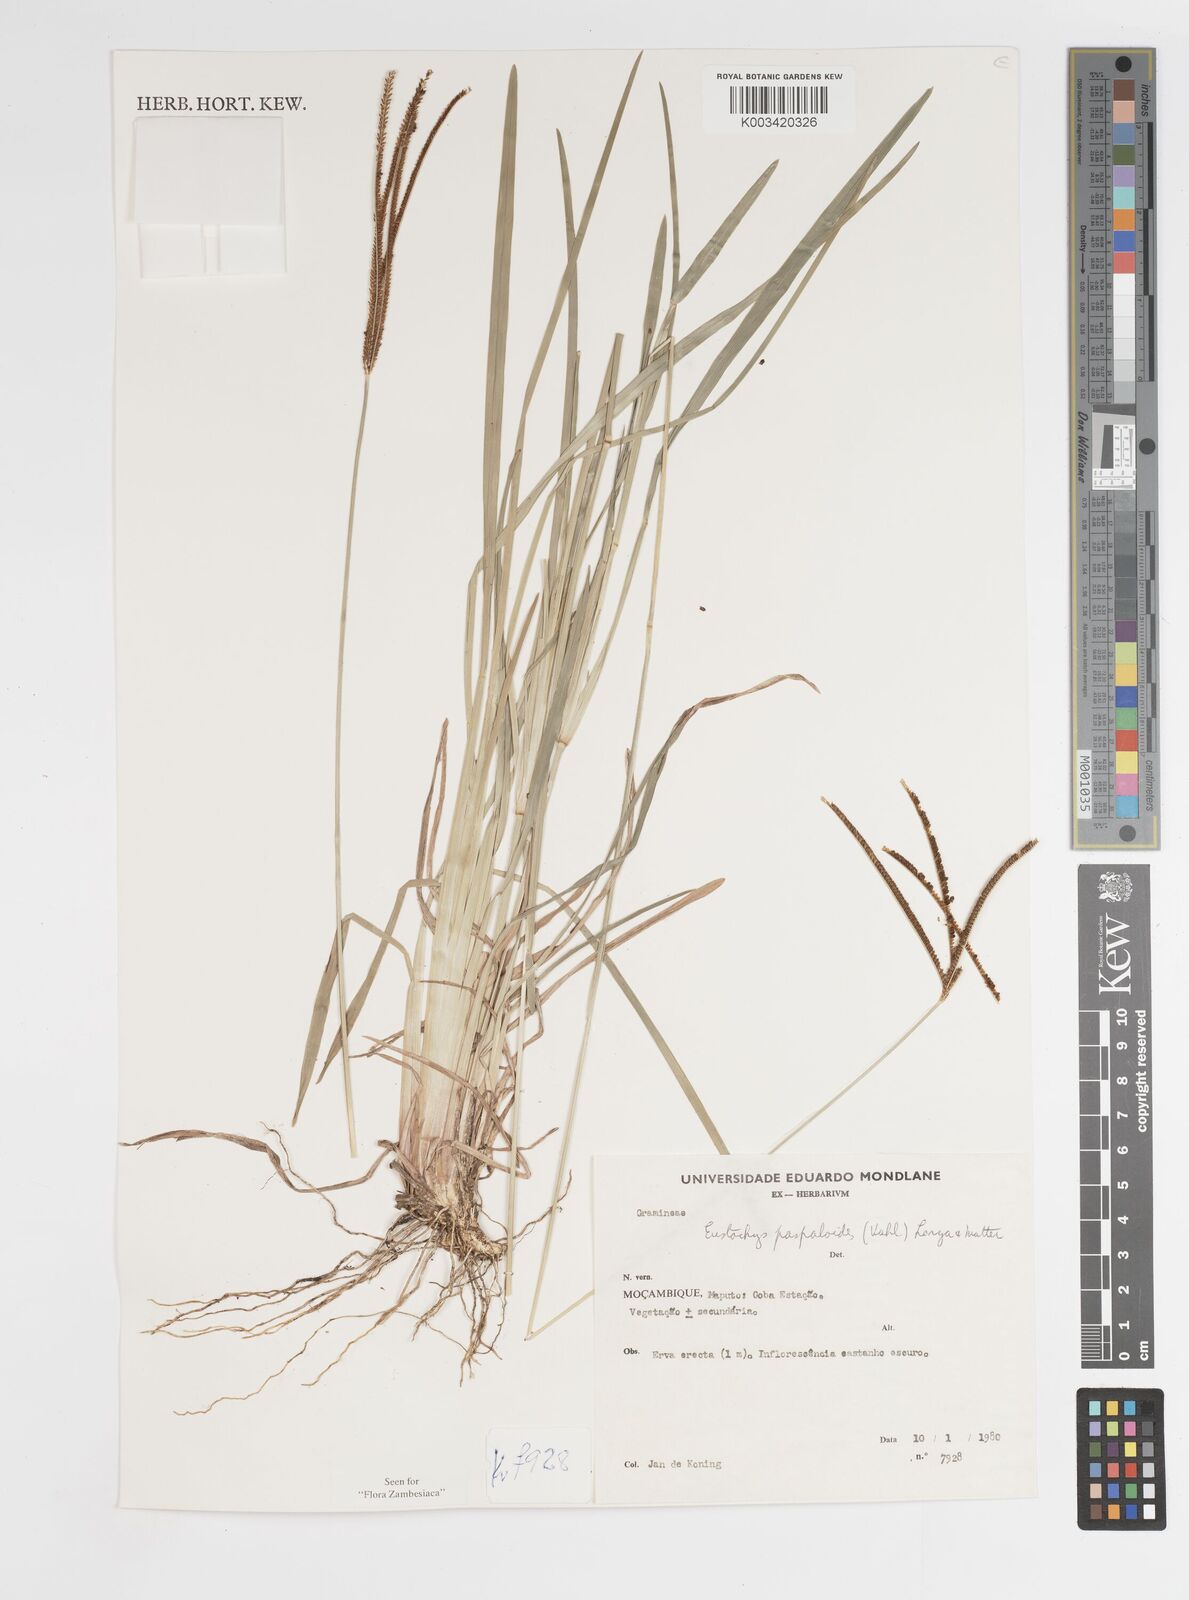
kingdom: Plantae
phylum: Tracheophyta
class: Liliopsida
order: Poales
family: Poaceae
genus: Eustachys
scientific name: Eustachys paspaloides
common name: Caribbean fingergrass
